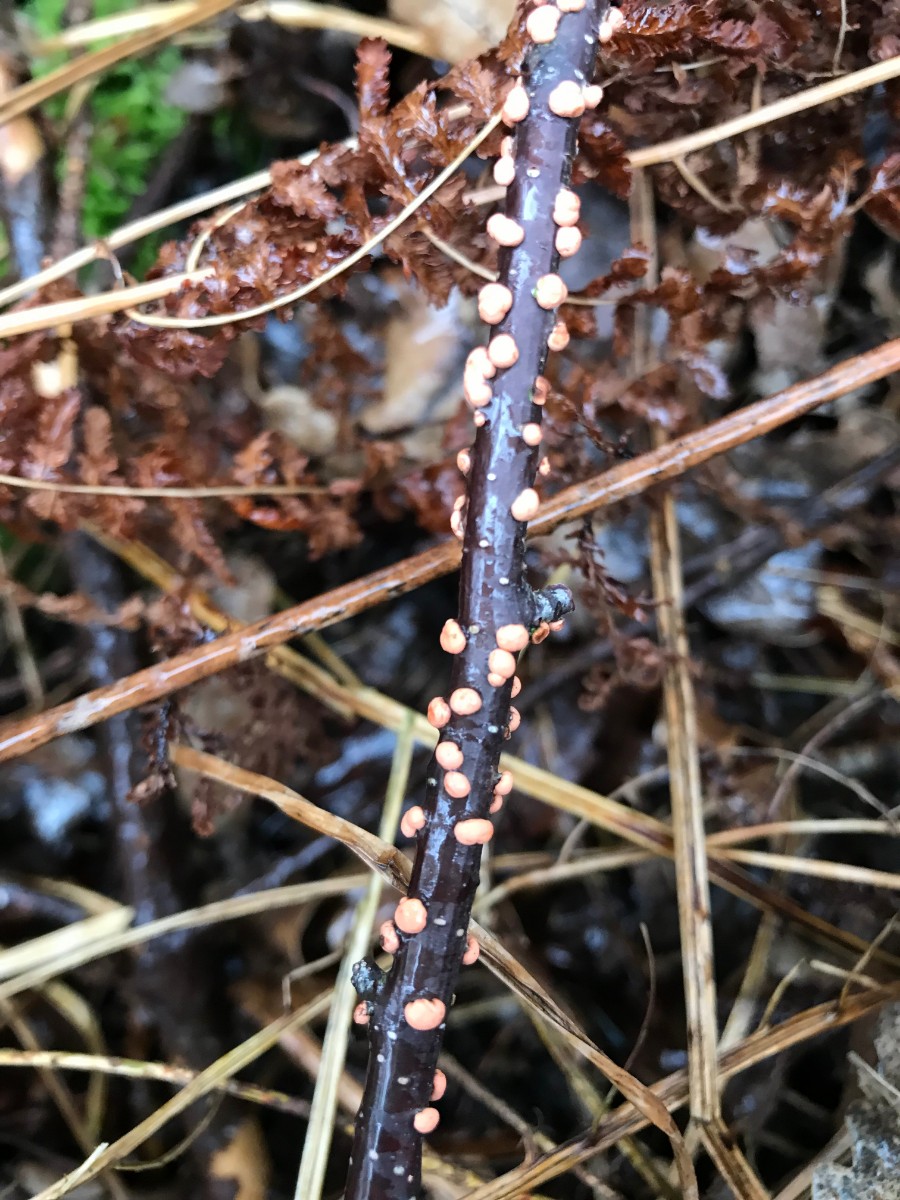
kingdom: Fungi
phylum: Ascomycota
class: Sordariomycetes
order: Hypocreales
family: Nectriaceae
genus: Nectria
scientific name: Nectria cinnabarina
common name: almindelig cinnobersvamp
